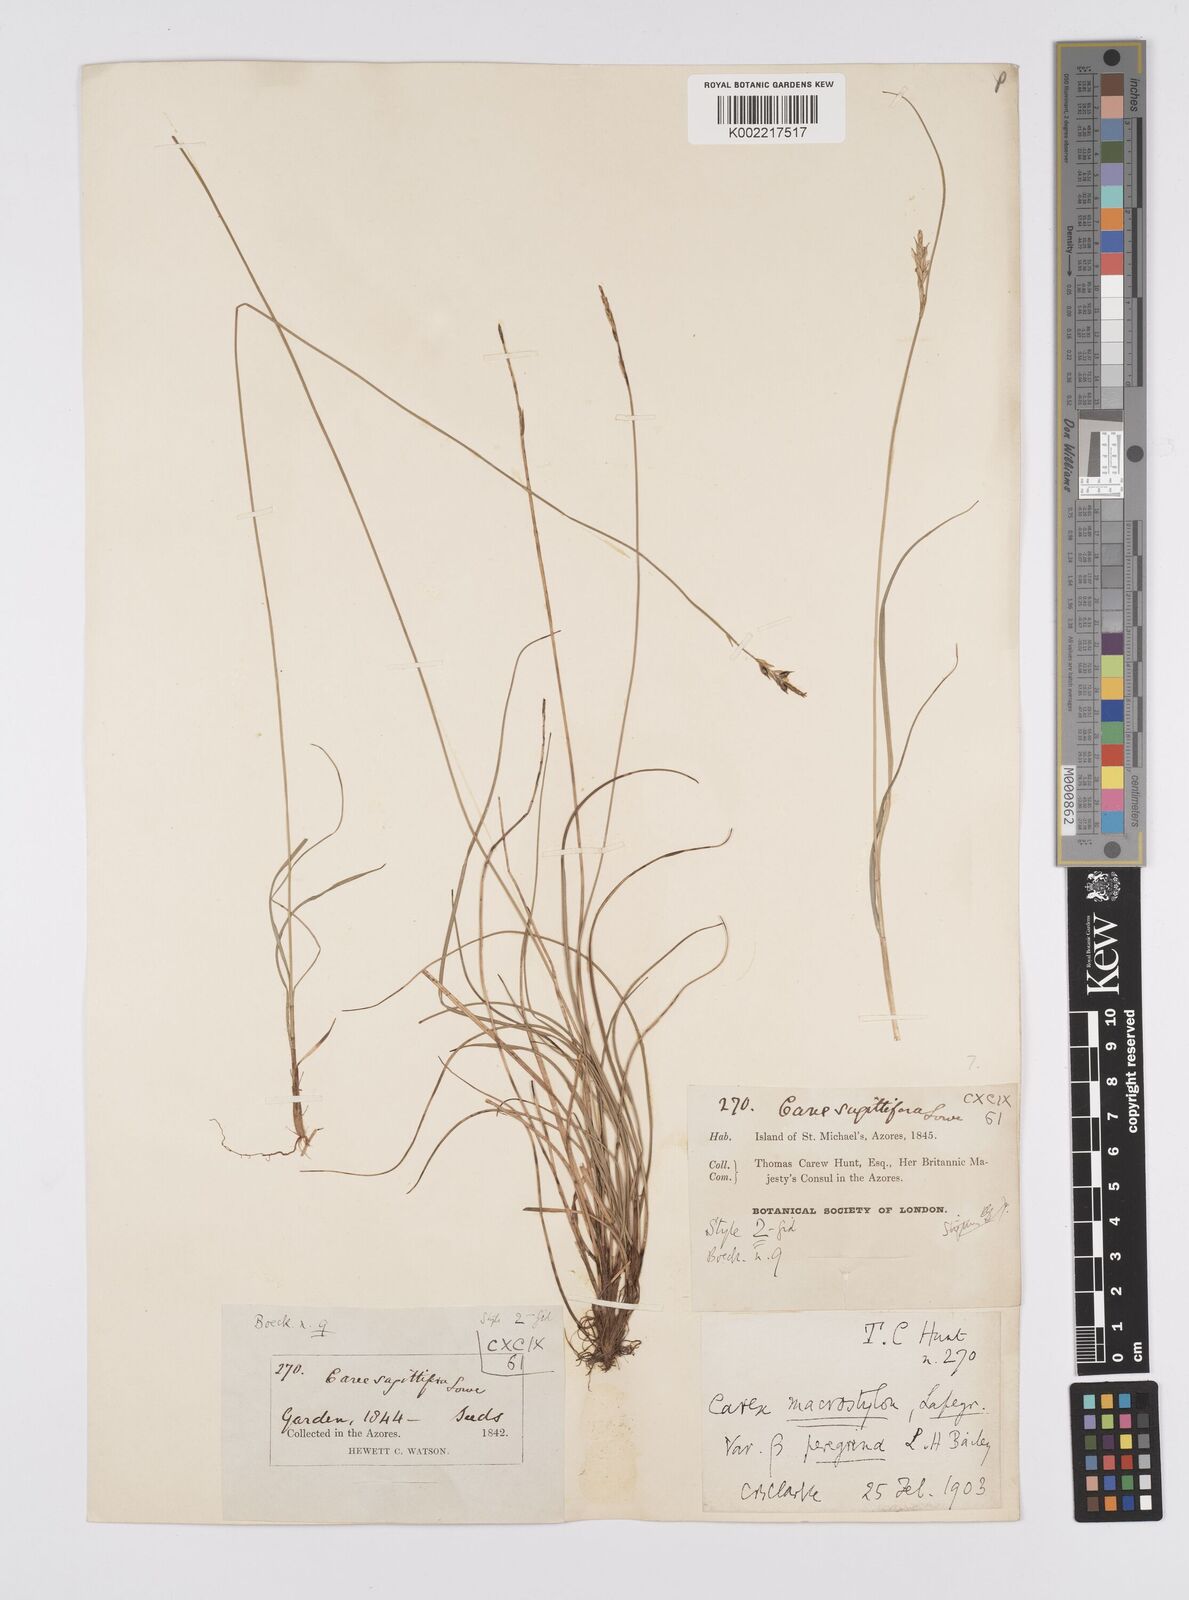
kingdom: Plantae
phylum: Tracheophyta
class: Liliopsida
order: Poales
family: Cyperaceae
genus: Carex
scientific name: Carex peregrina
